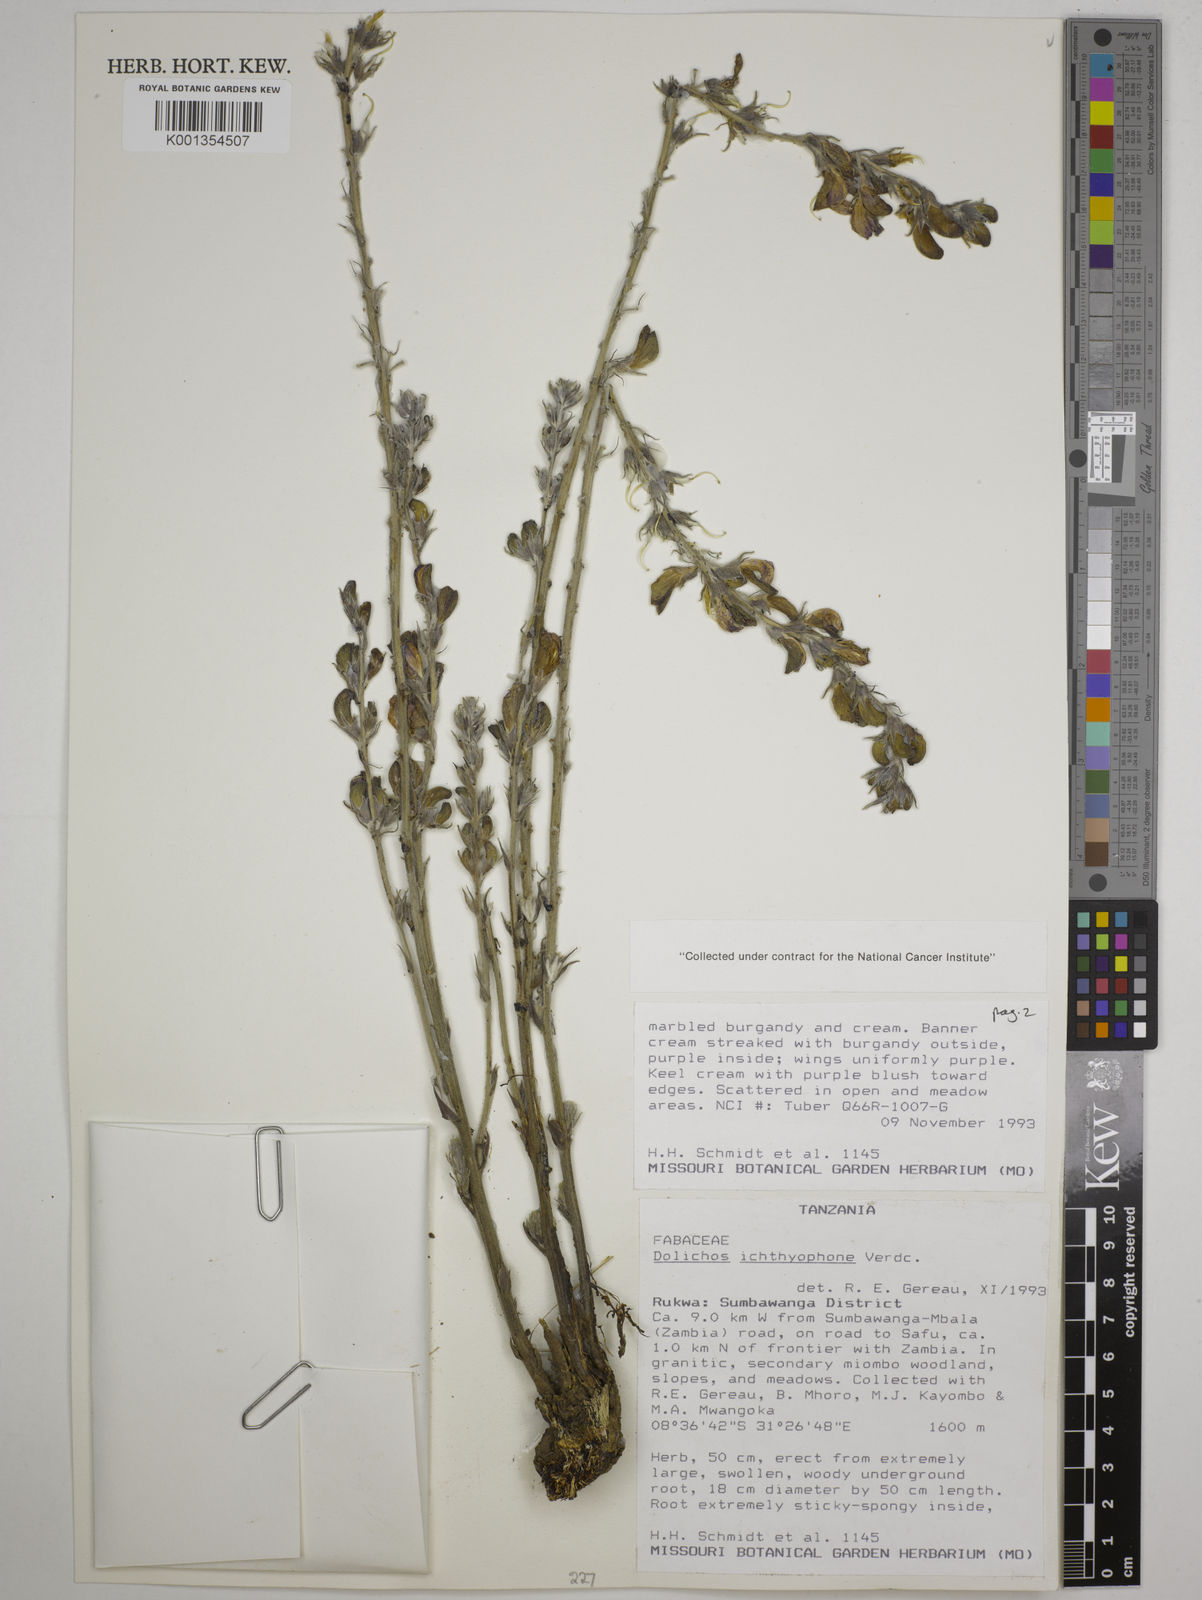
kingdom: Plantae
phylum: Tracheophyta
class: Magnoliopsida
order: Fabales
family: Fabaceae
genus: Dolichos
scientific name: Dolichos ichthyophone
